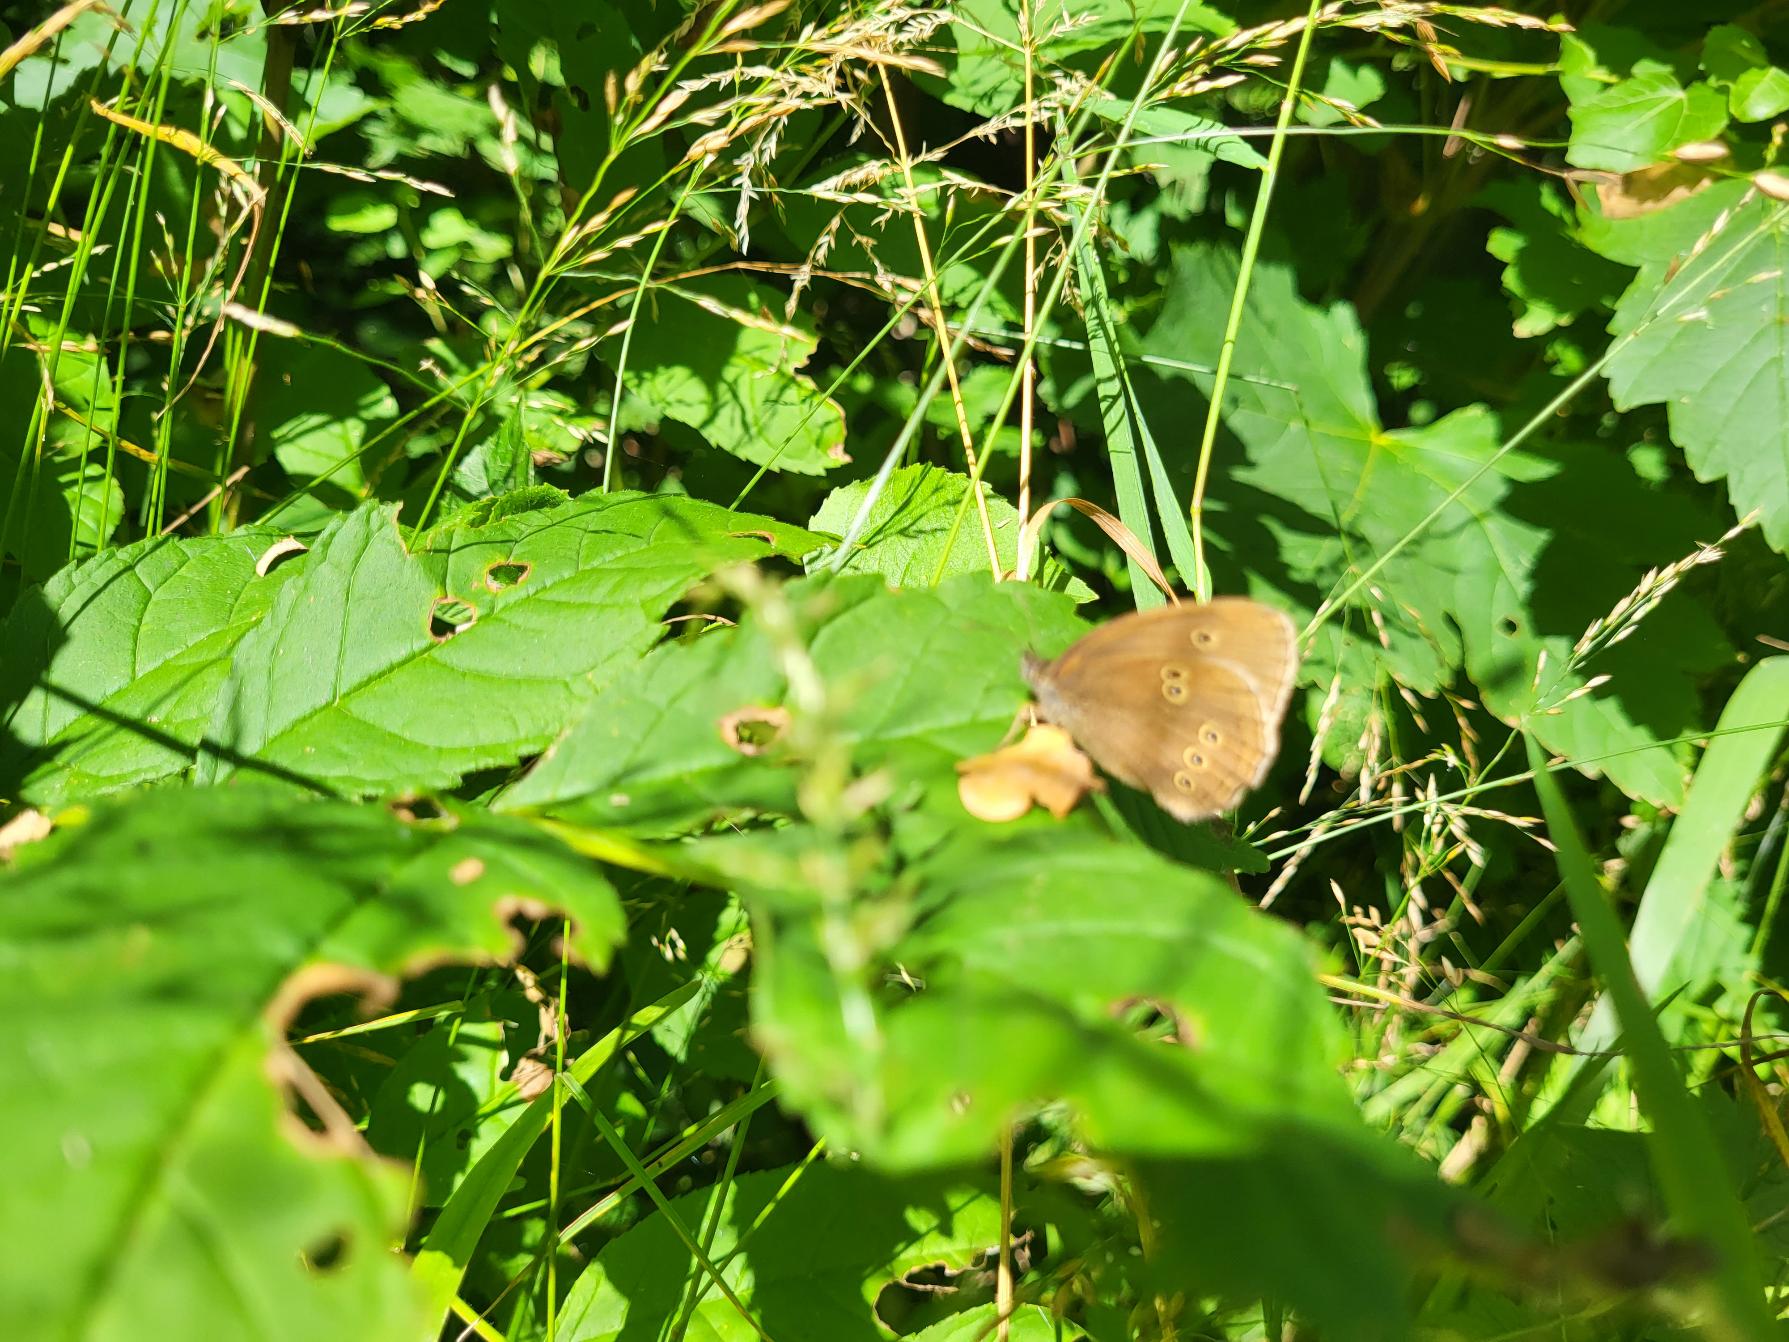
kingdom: Animalia
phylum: Arthropoda
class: Insecta
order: Lepidoptera
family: Nymphalidae
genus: Aphantopus
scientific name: Aphantopus hyperantus
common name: Engrandøje
